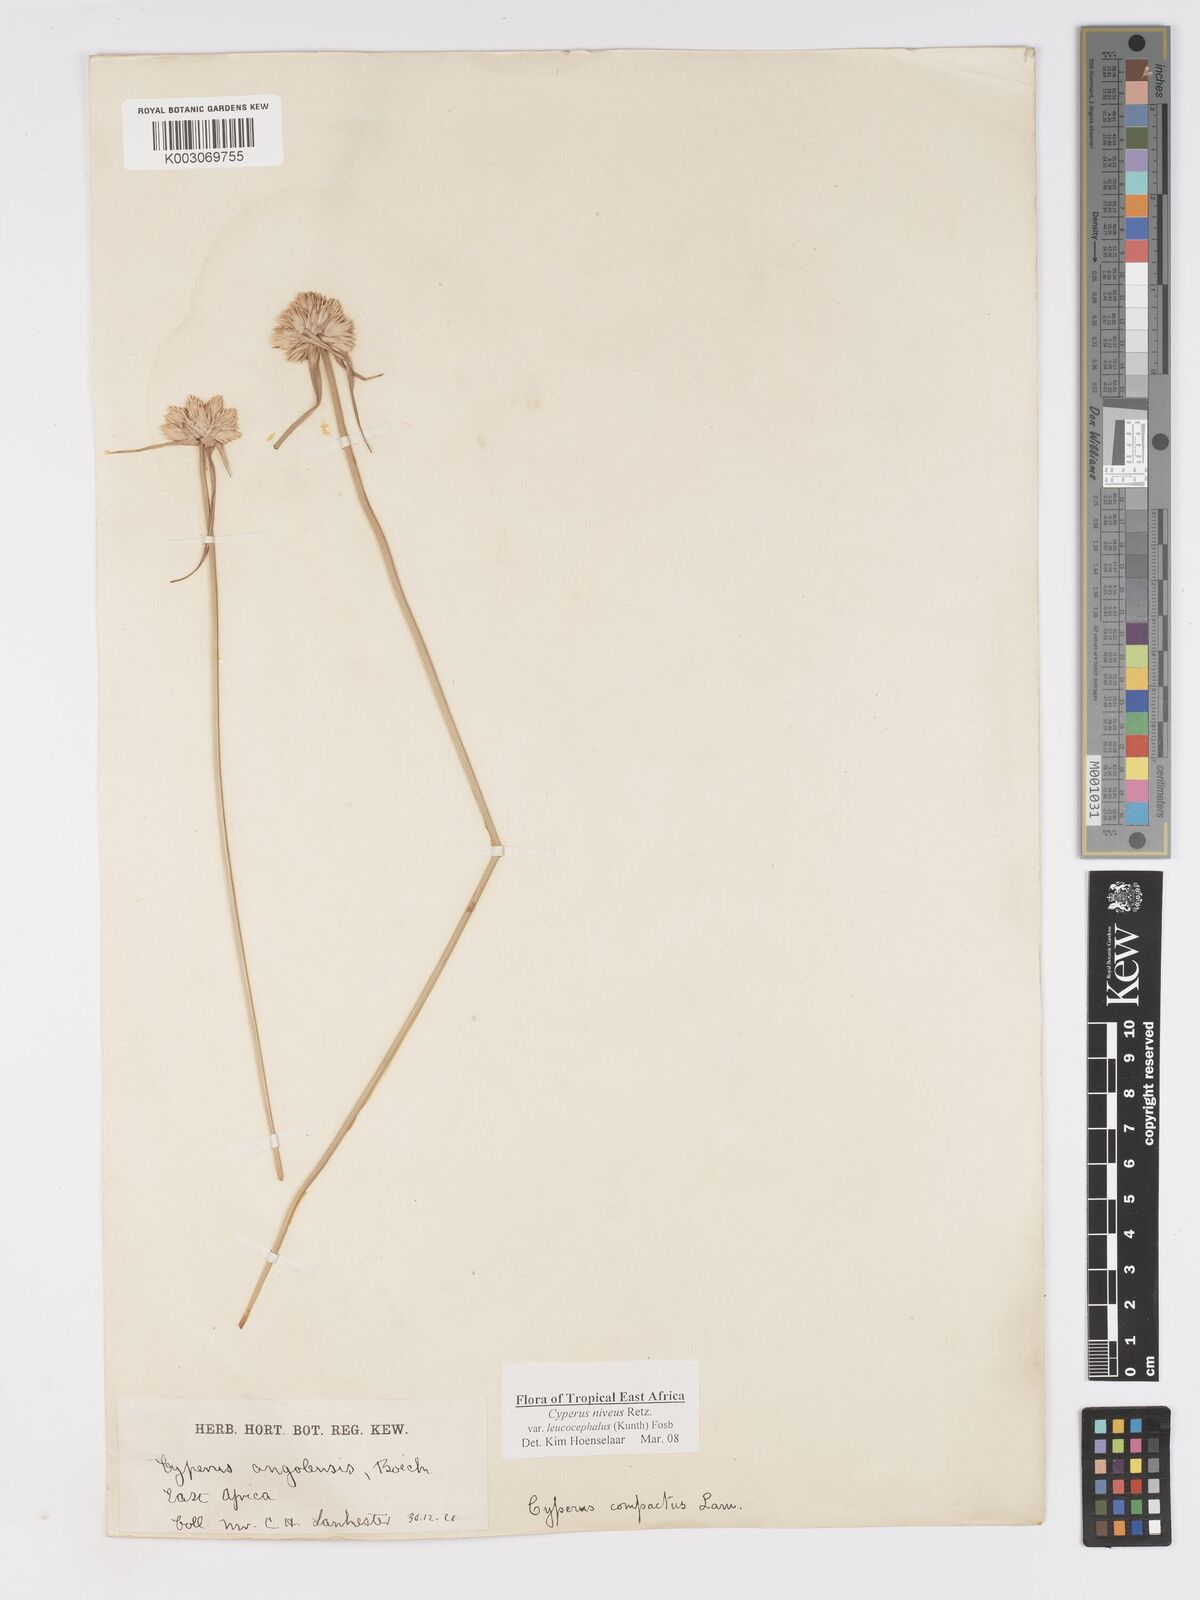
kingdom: Plantae
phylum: Tracheophyta
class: Liliopsida
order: Poales
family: Cyperaceae
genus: Cyperus
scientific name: Cyperus niveus
